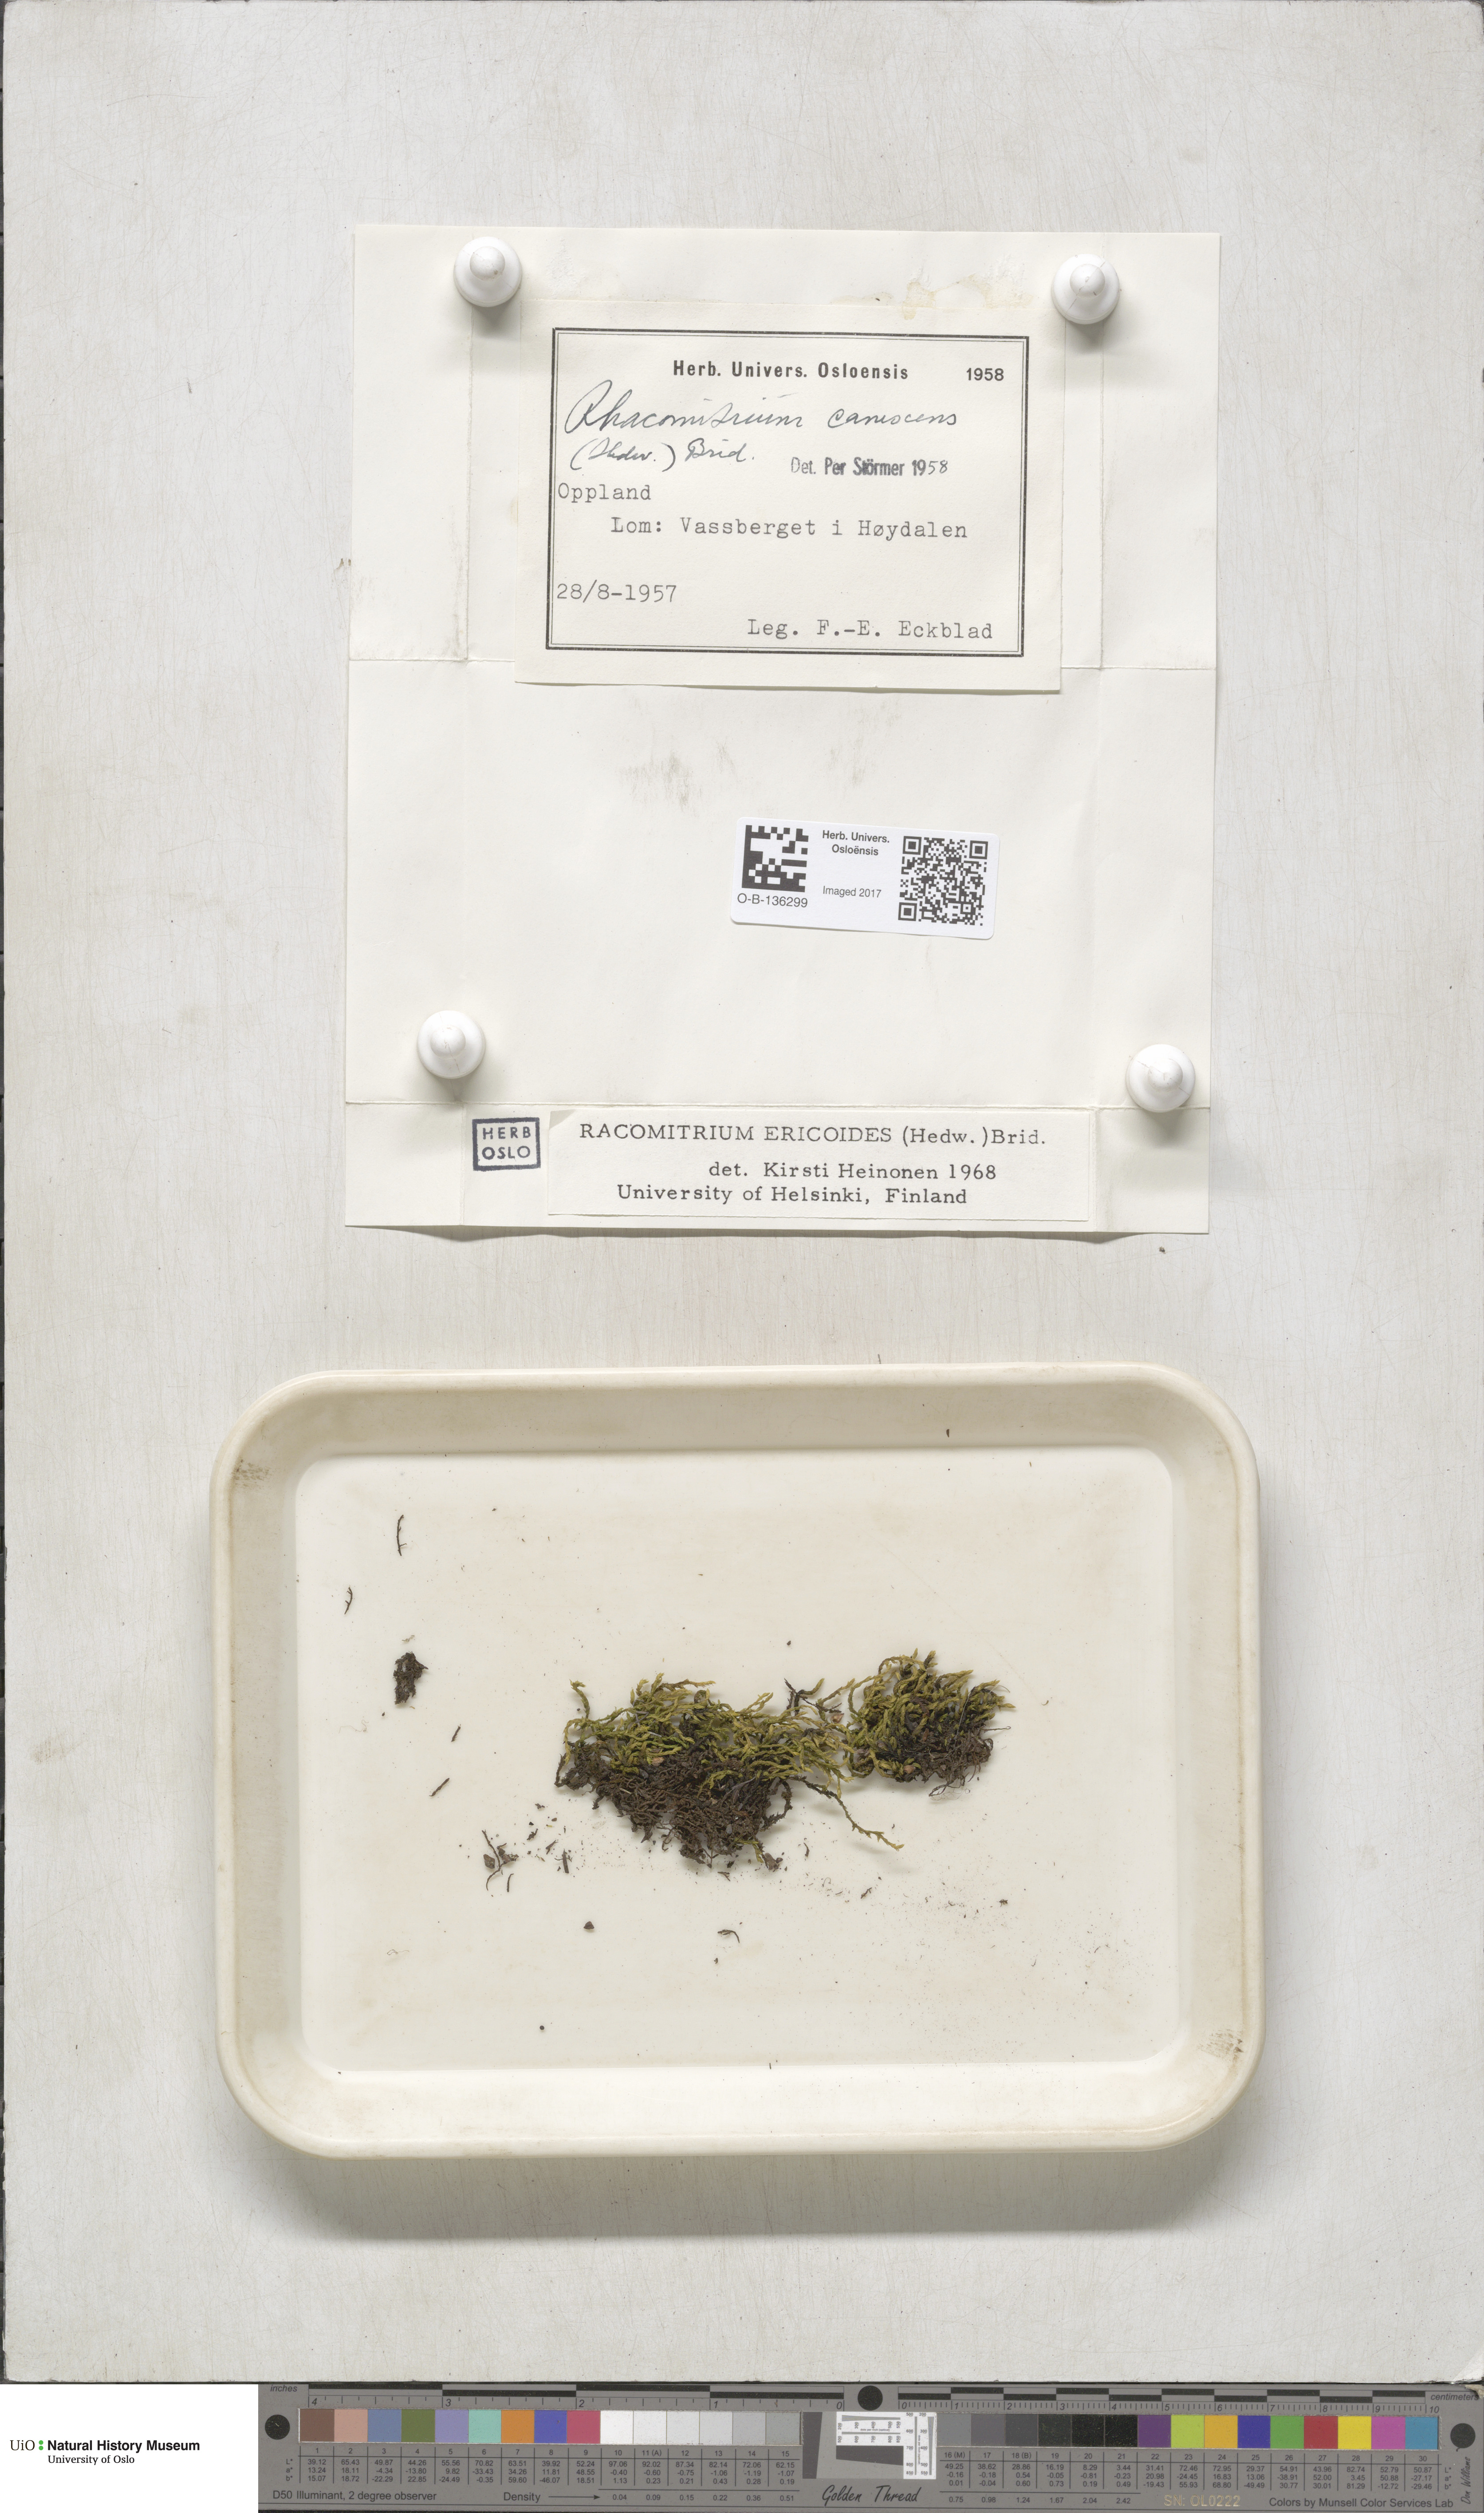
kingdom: Plantae
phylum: Bryophyta
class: Bryopsida
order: Grimmiales
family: Grimmiaceae
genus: Niphotrichum
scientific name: Niphotrichum ericoides
